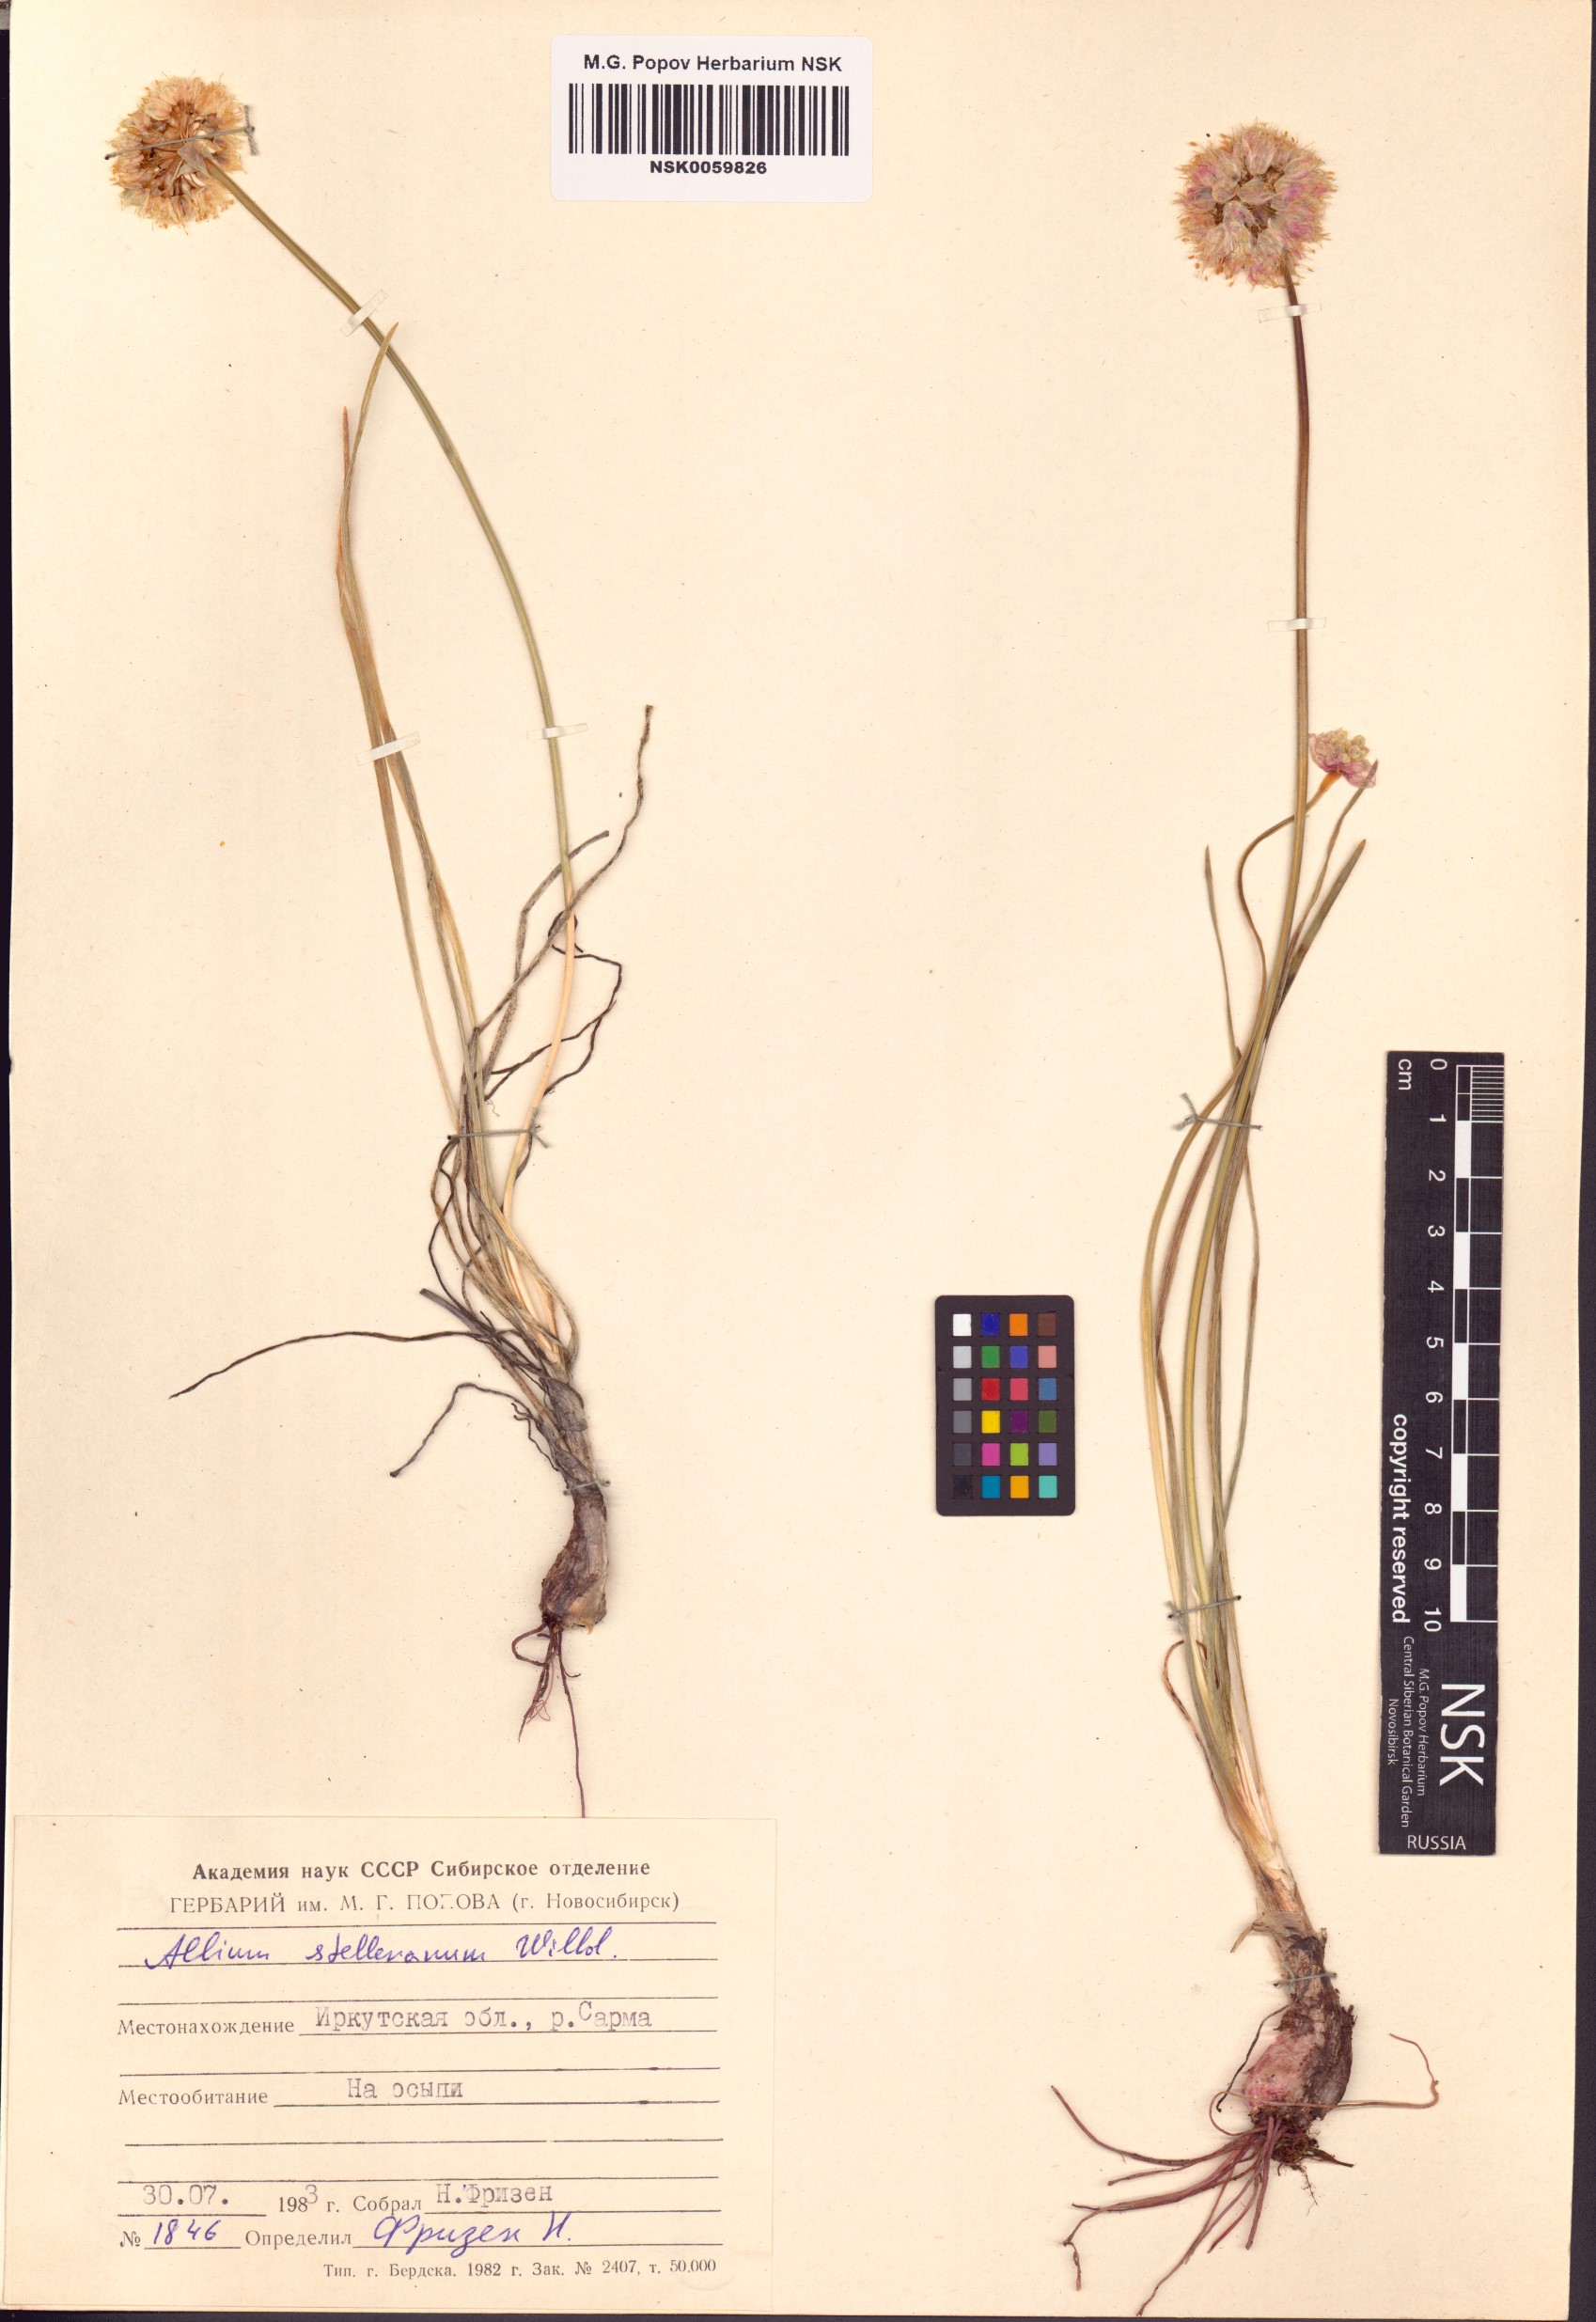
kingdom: Plantae
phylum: Tracheophyta
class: Liliopsida
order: Asparagales
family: Amaryllidaceae
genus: Allium
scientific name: Allium stellerianum
